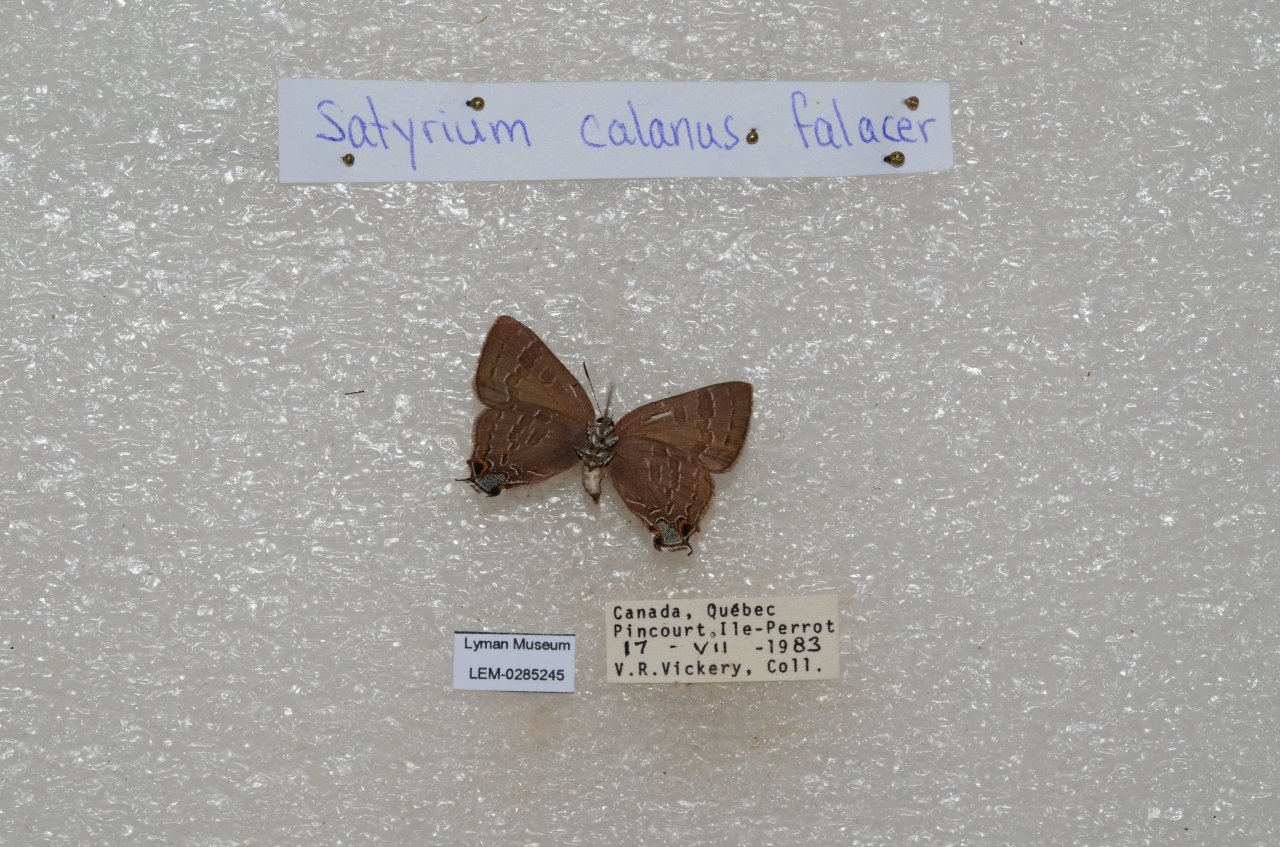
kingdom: Animalia
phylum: Arthropoda
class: Insecta
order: Lepidoptera
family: Lycaenidae
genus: Strymon
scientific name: Strymon caryaevorus
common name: Hickory Hairstreak
